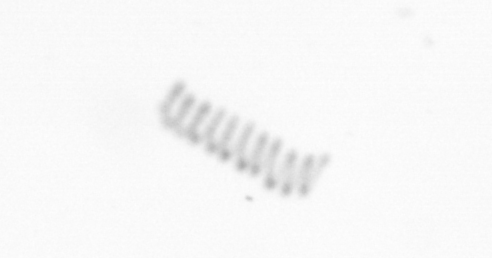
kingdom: Chromista
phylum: Ochrophyta
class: Bacillariophyceae
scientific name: Bacillariophyceae
